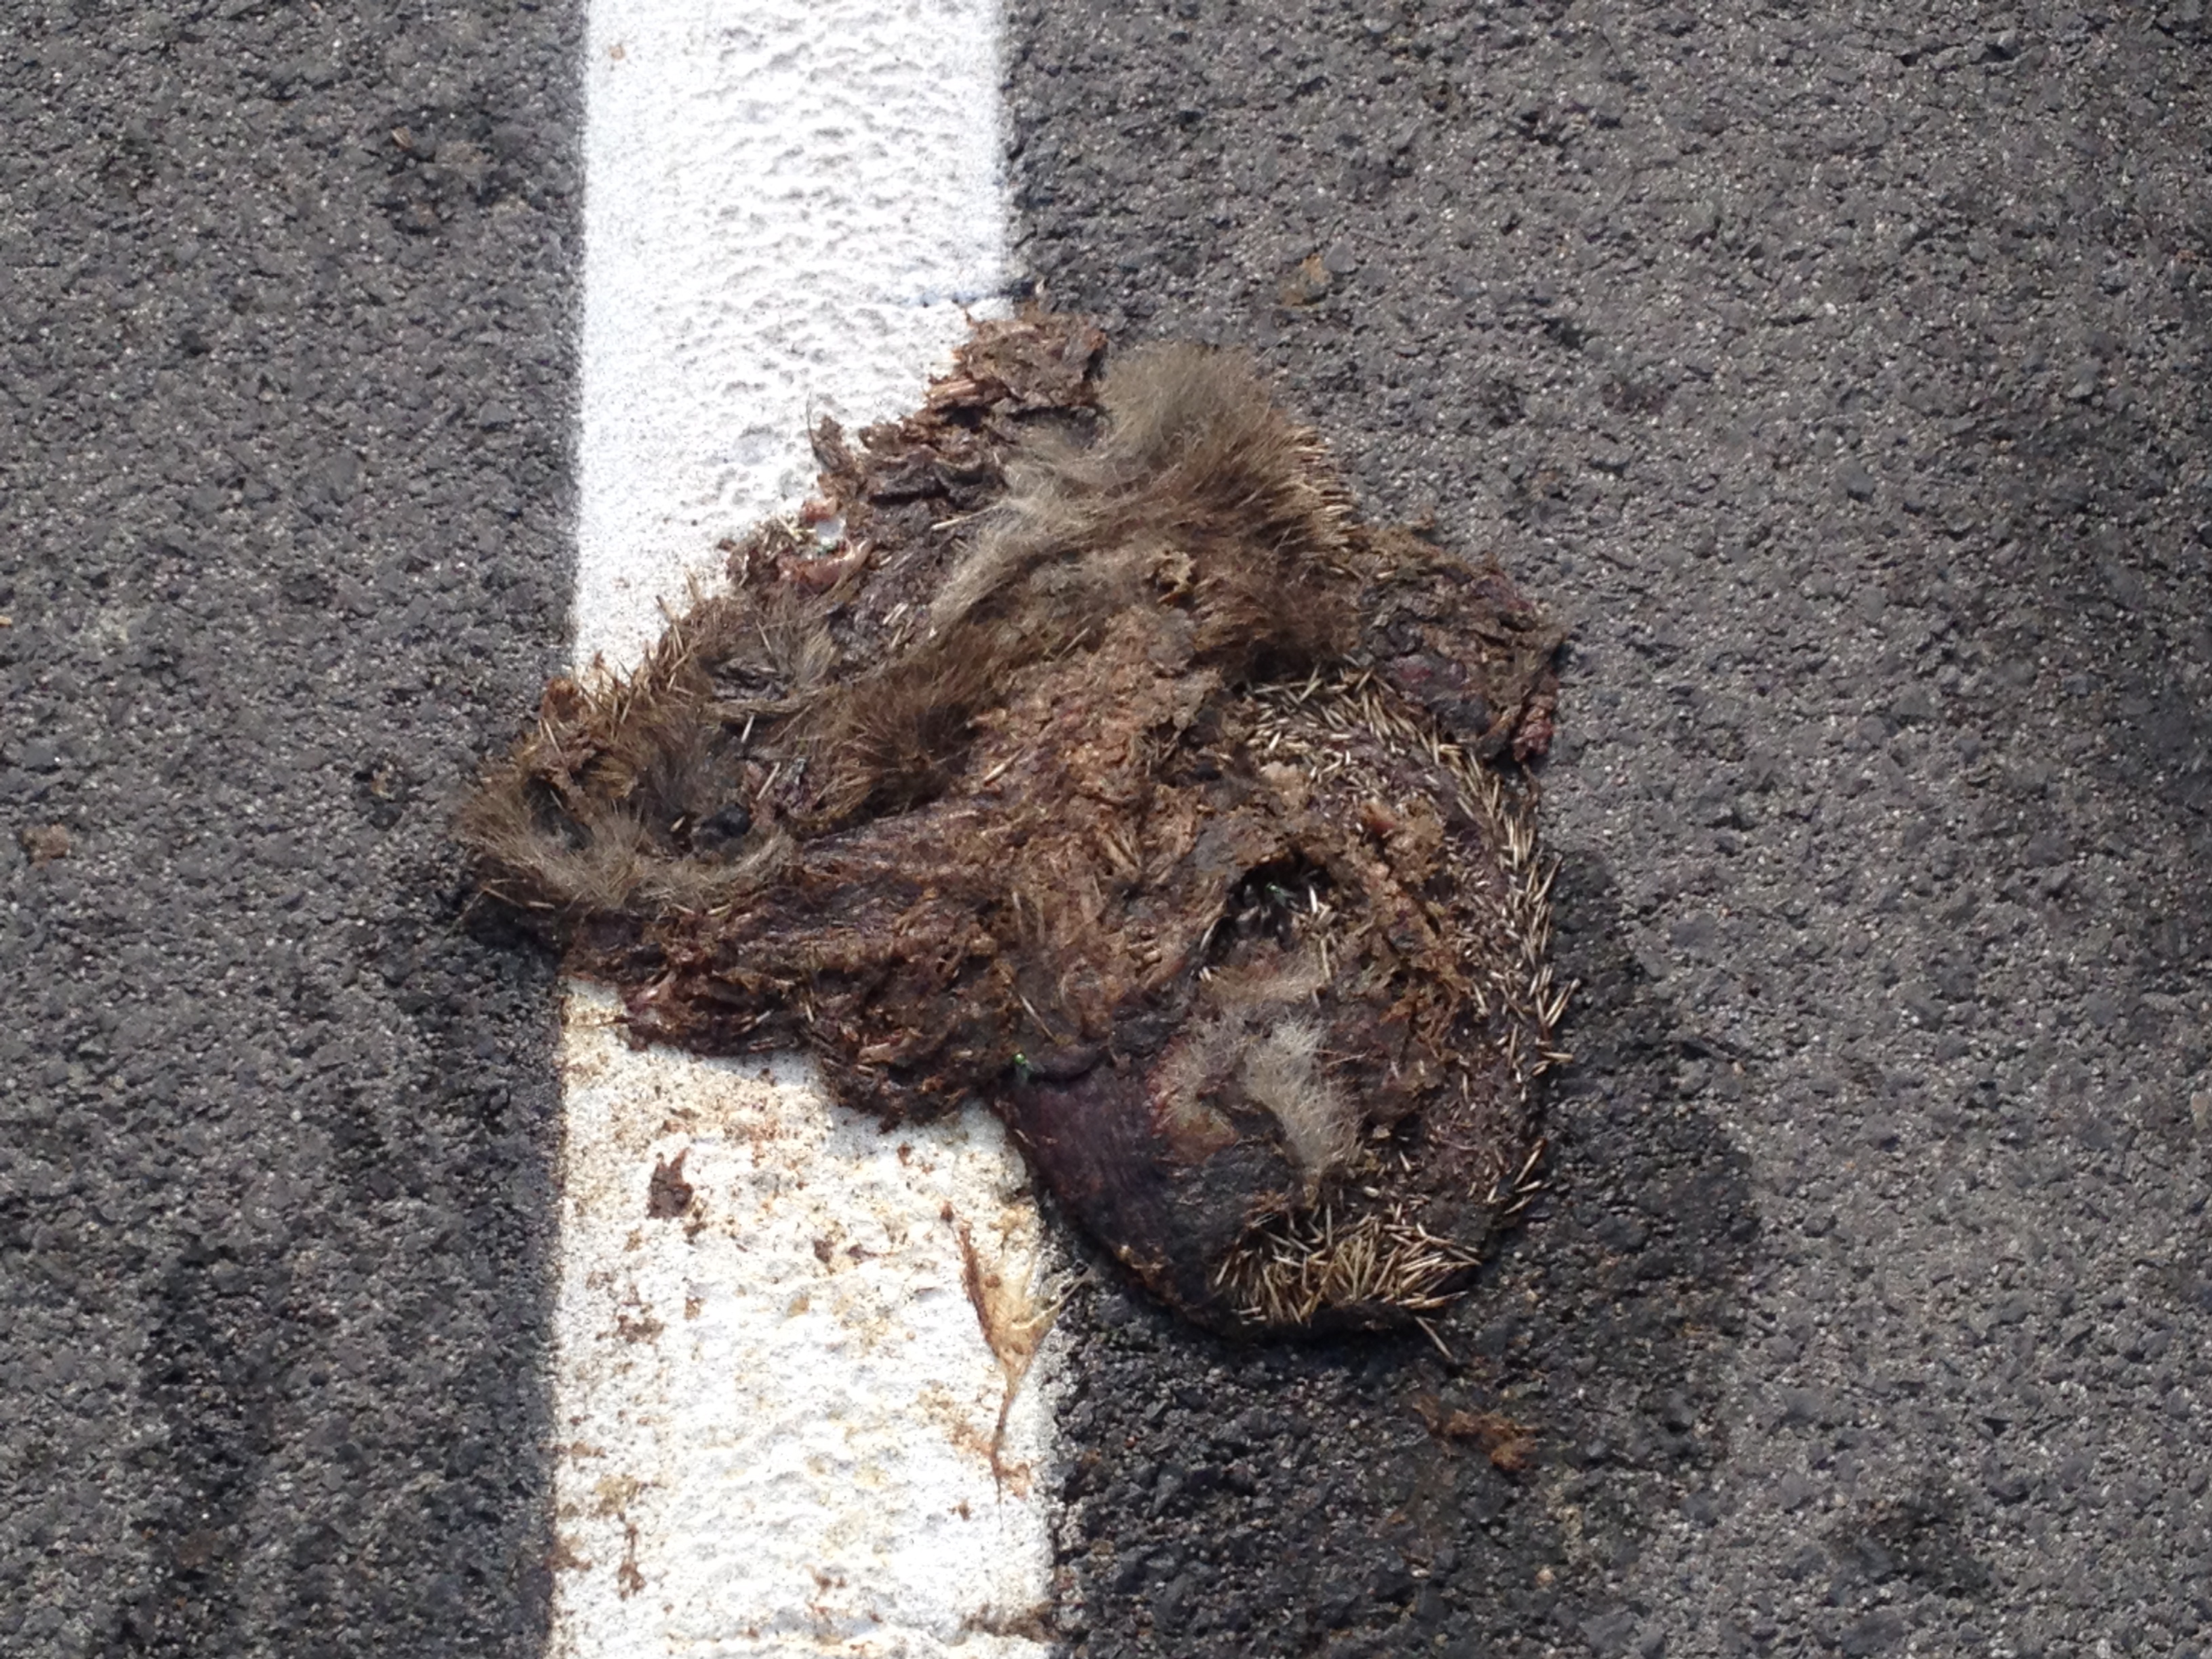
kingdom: Animalia
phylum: Chordata
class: Mammalia
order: Erinaceomorpha
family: Erinaceidae
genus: Erinaceus
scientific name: Erinaceus
